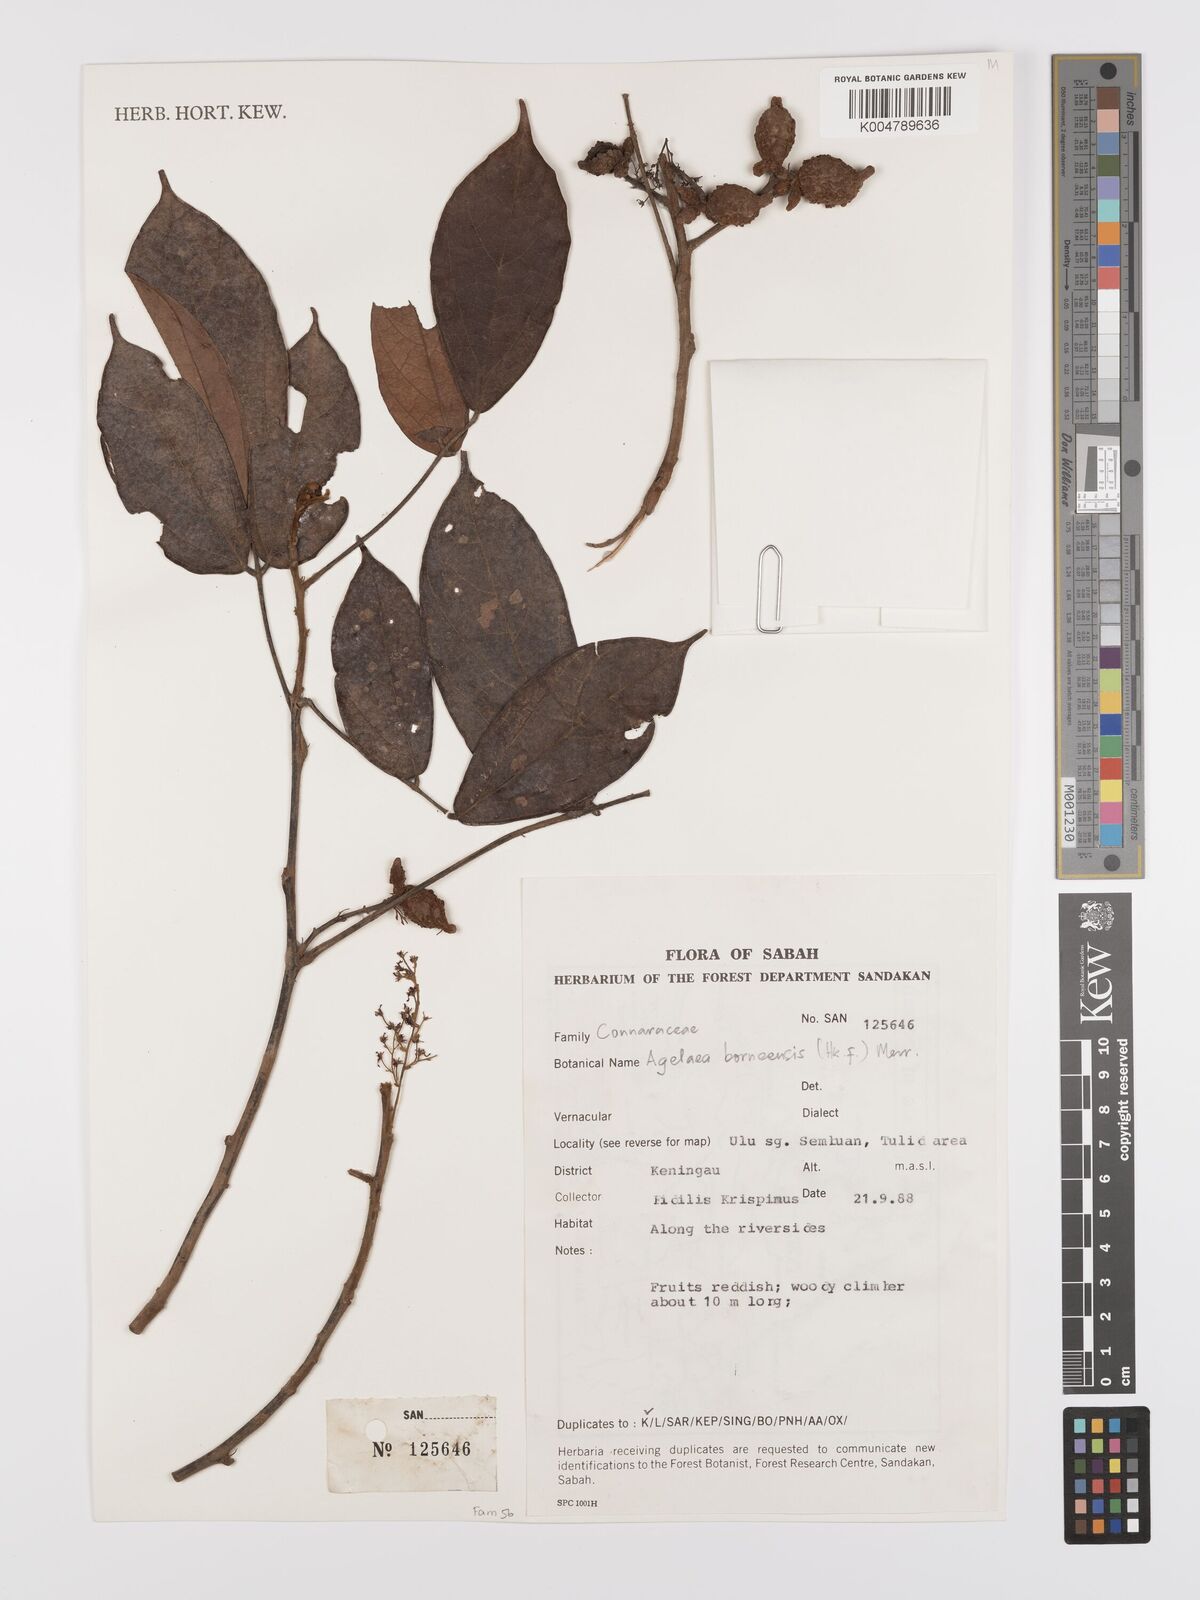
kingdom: Plantae
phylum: Tracheophyta
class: Magnoliopsida
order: Oxalidales
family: Connaraceae
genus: Agelaea
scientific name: Agelaea borneensis
